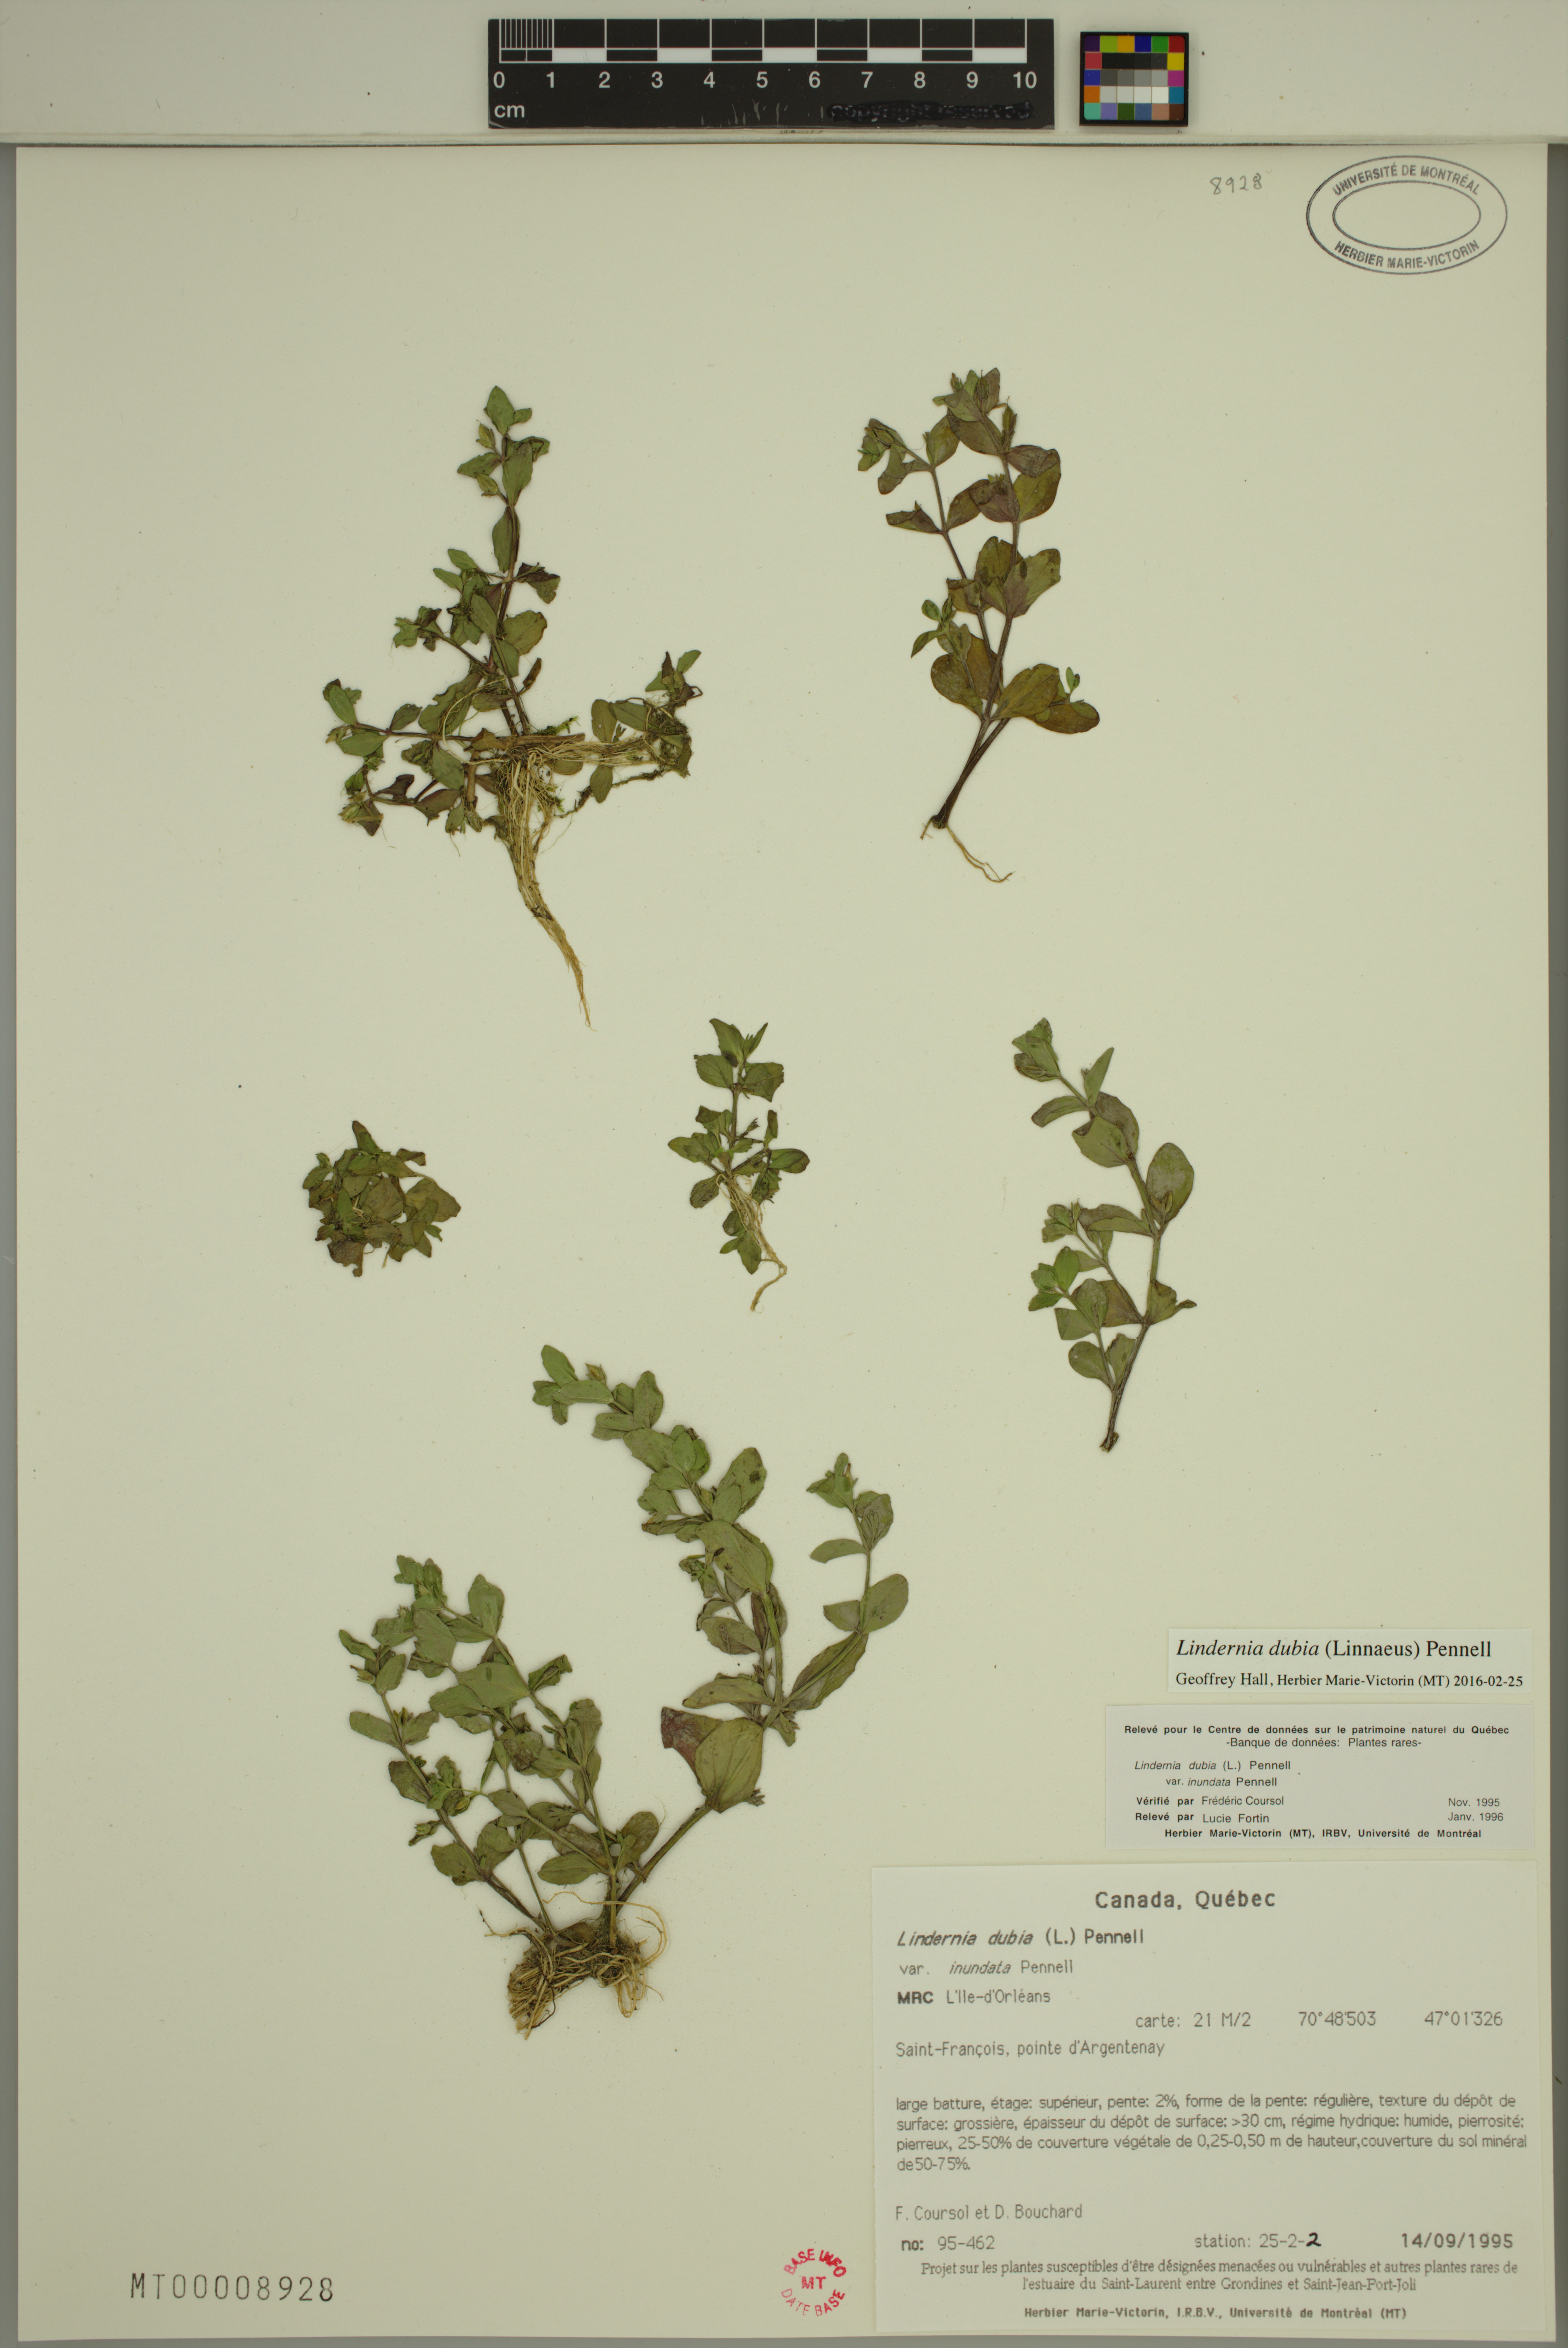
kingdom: Plantae
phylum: Tracheophyta
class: Magnoliopsida
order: Lamiales
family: Linderniaceae
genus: Lindernia
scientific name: Lindernia dubia
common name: Annual false pimpernel
